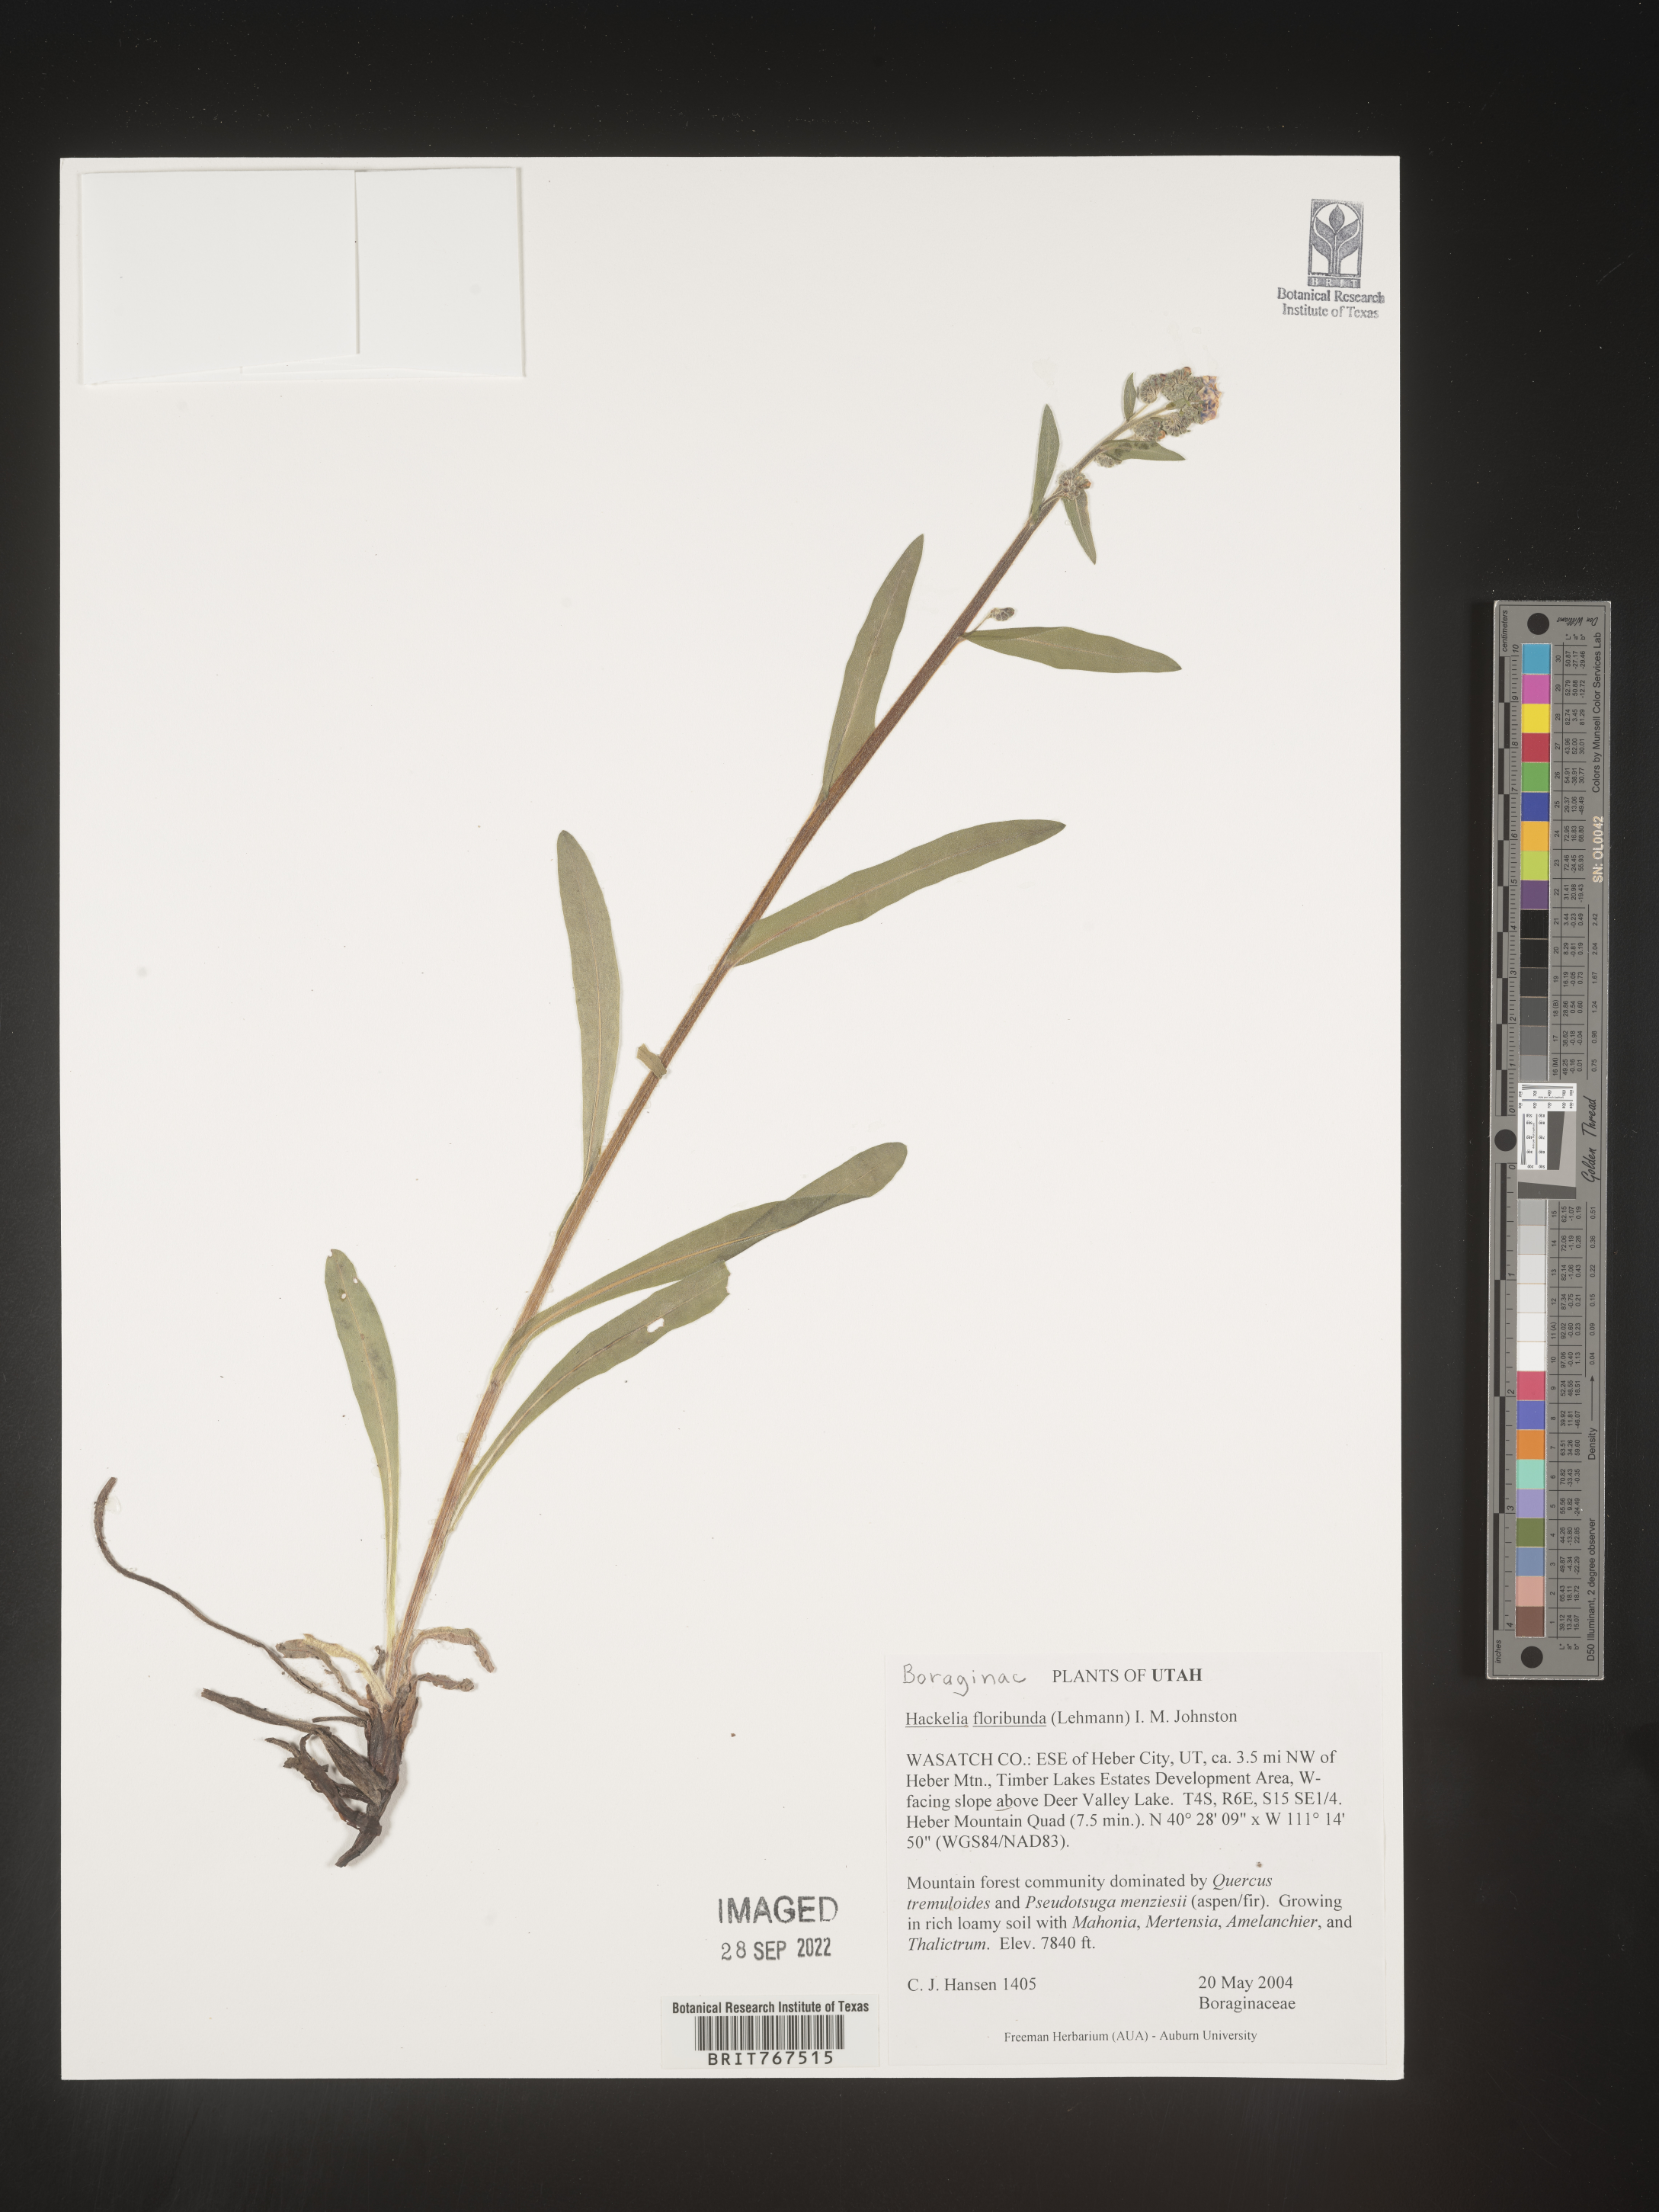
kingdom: Plantae
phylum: Tracheophyta
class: Magnoliopsida
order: Boraginales
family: Boraginaceae
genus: Hackelia
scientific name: Hackelia floribunda
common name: Large-flowered stickseed
